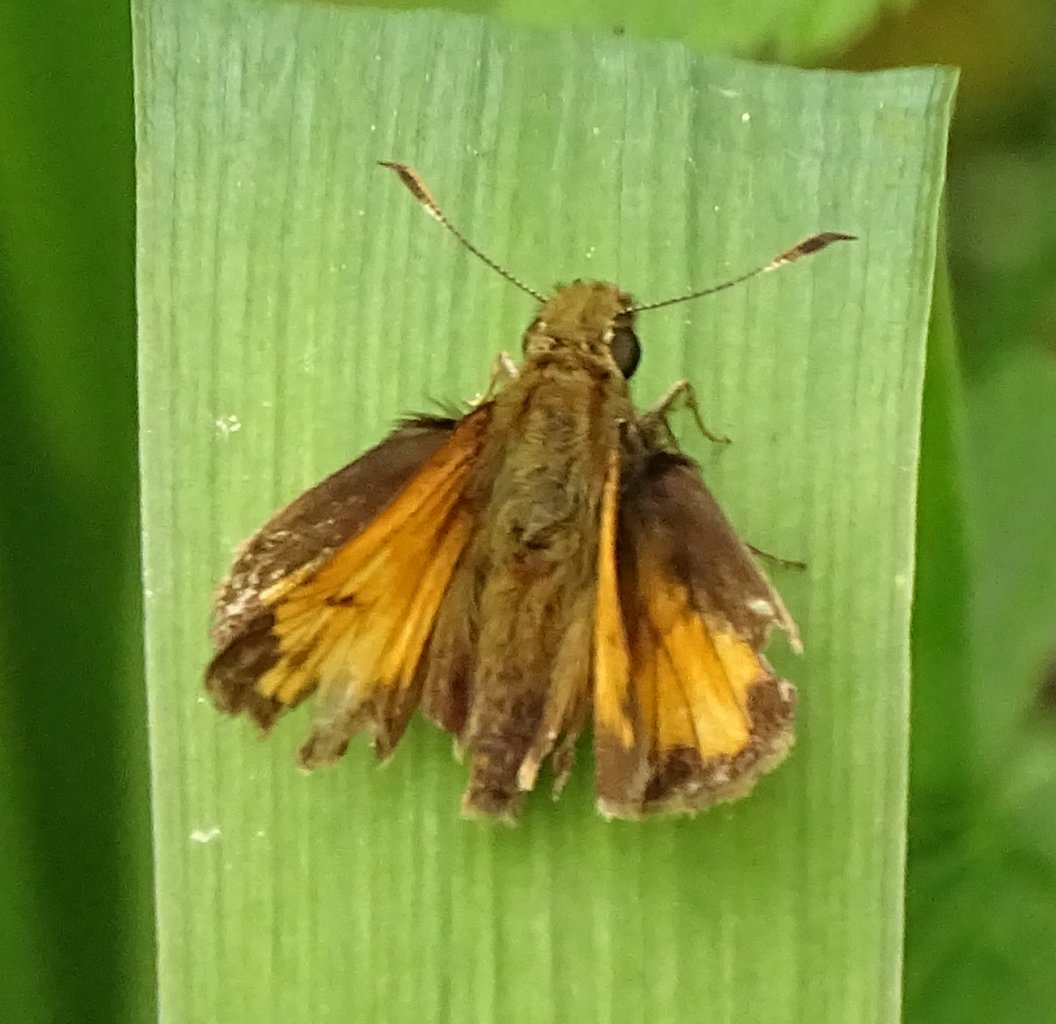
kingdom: Animalia
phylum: Arthropoda
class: Insecta
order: Lepidoptera
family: Hesperiidae
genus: Lon
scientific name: Lon hobomok
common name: Hobomok Skipper
